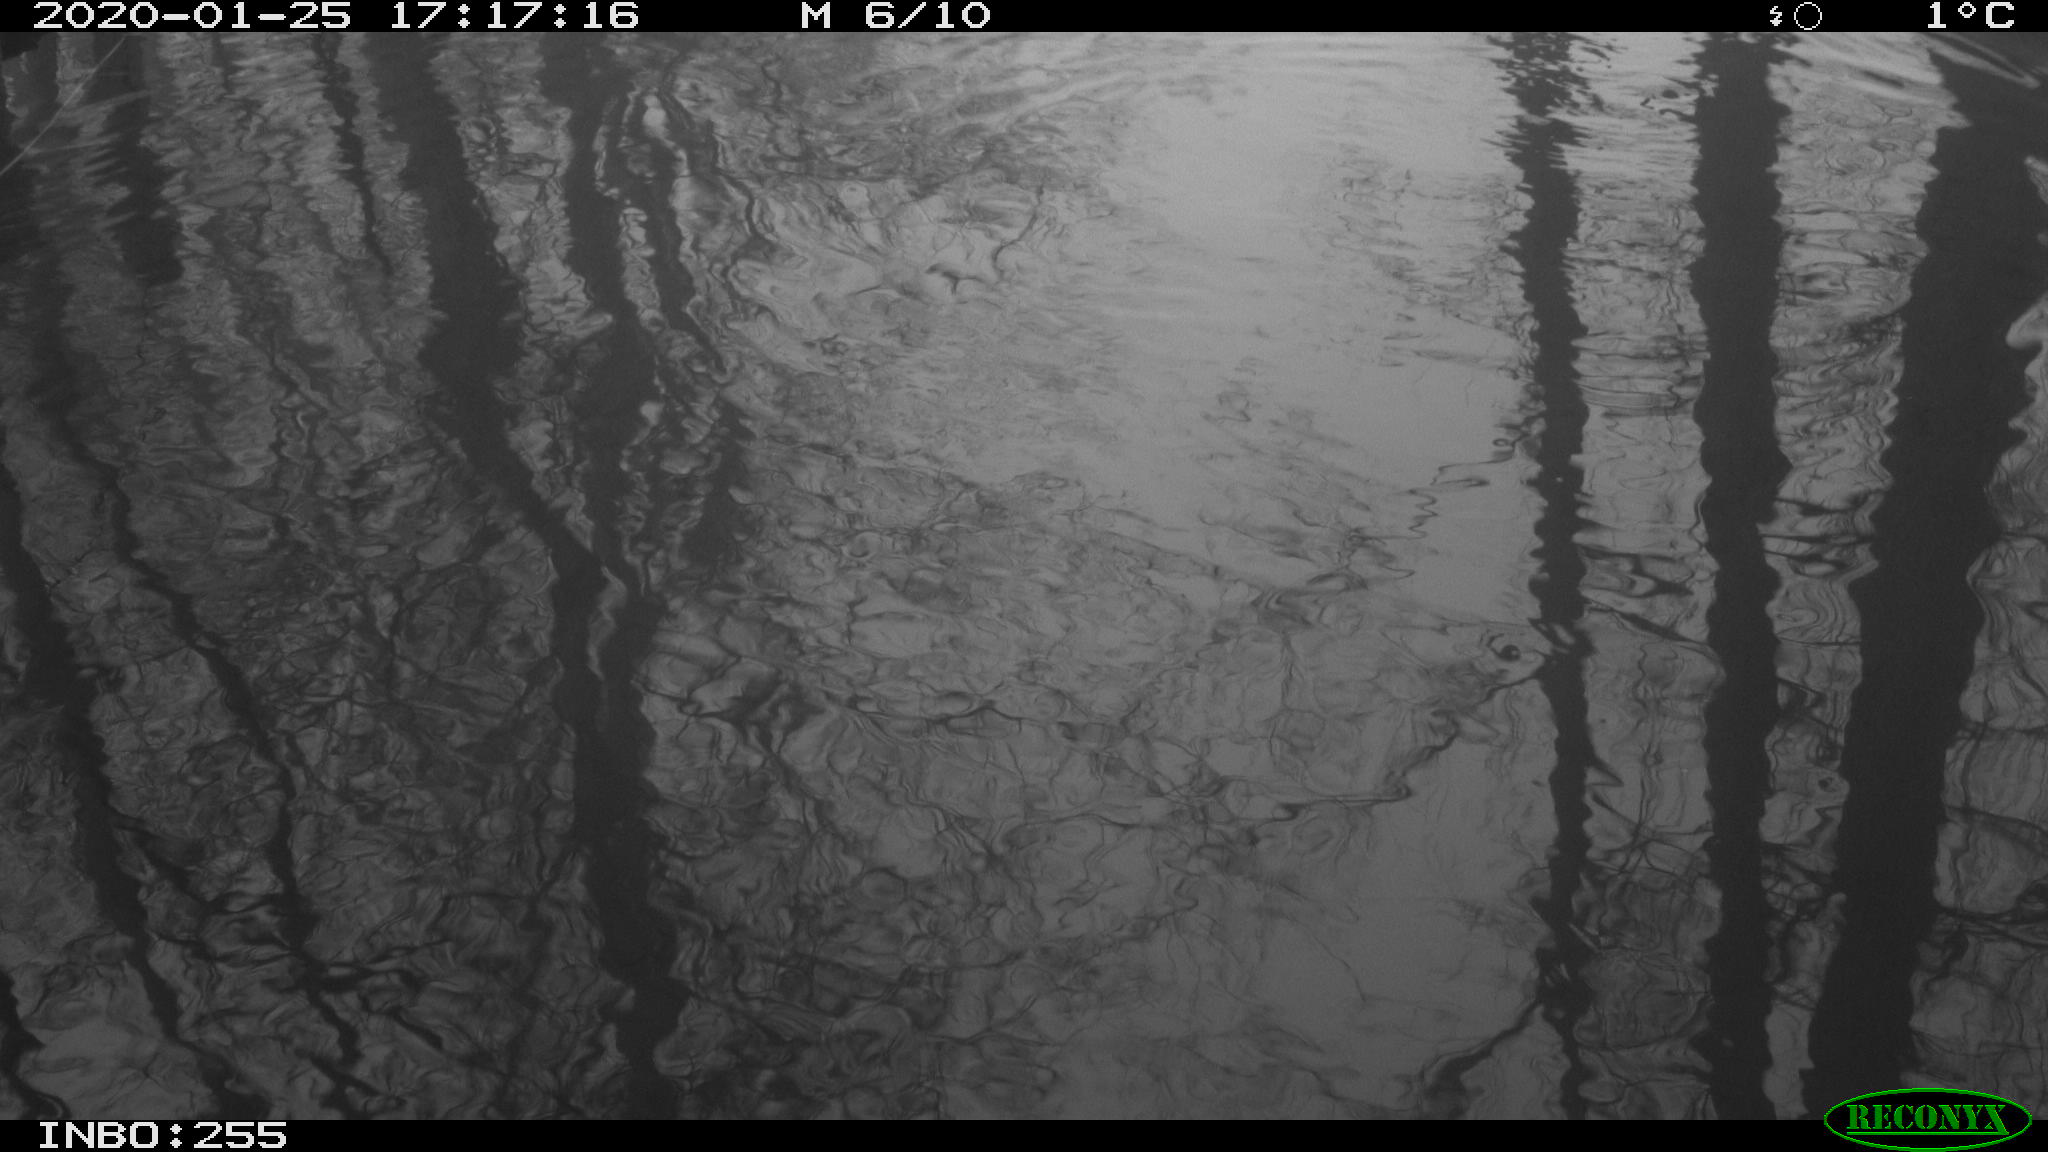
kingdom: Animalia
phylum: Chordata
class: Aves
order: Gruiformes
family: Rallidae
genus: Fulica
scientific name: Fulica atra
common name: Eurasian coot
